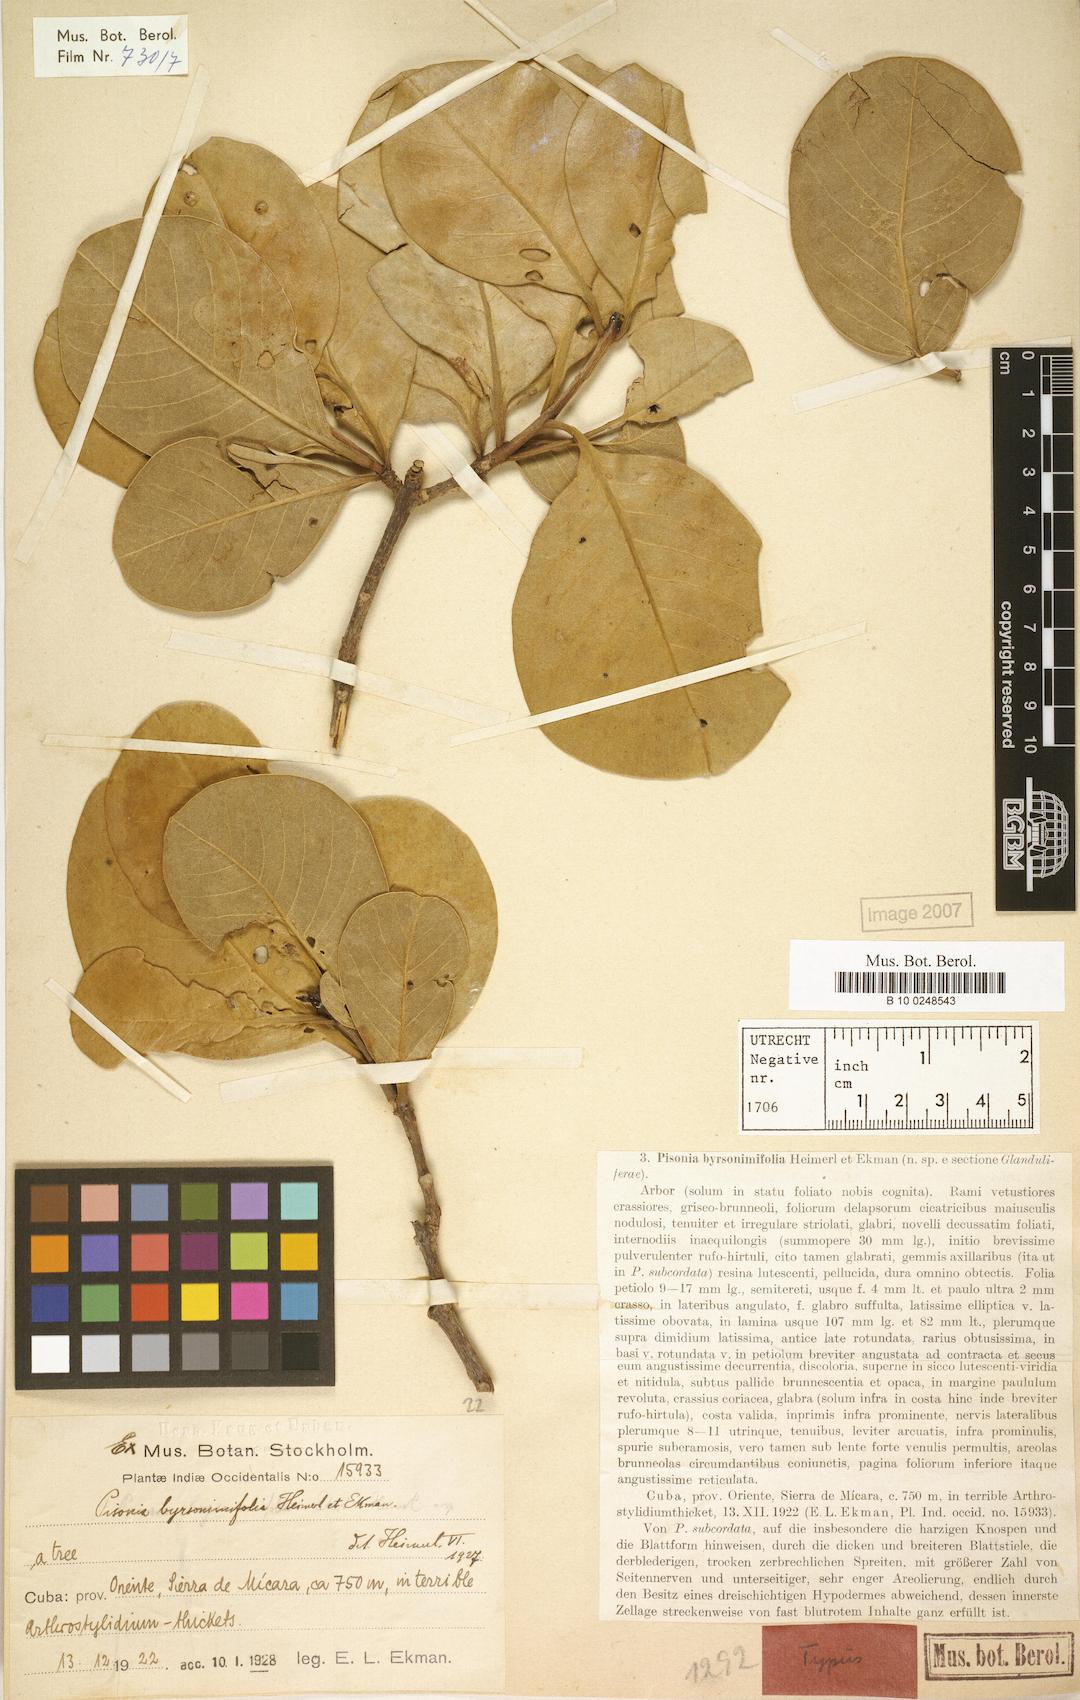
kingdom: Plantae
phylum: Tracheophyta
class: Magnoliopsida
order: Caryophyllales
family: Nyctaginaceae
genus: Pisonia
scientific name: Pisonia byrsonimifolia
